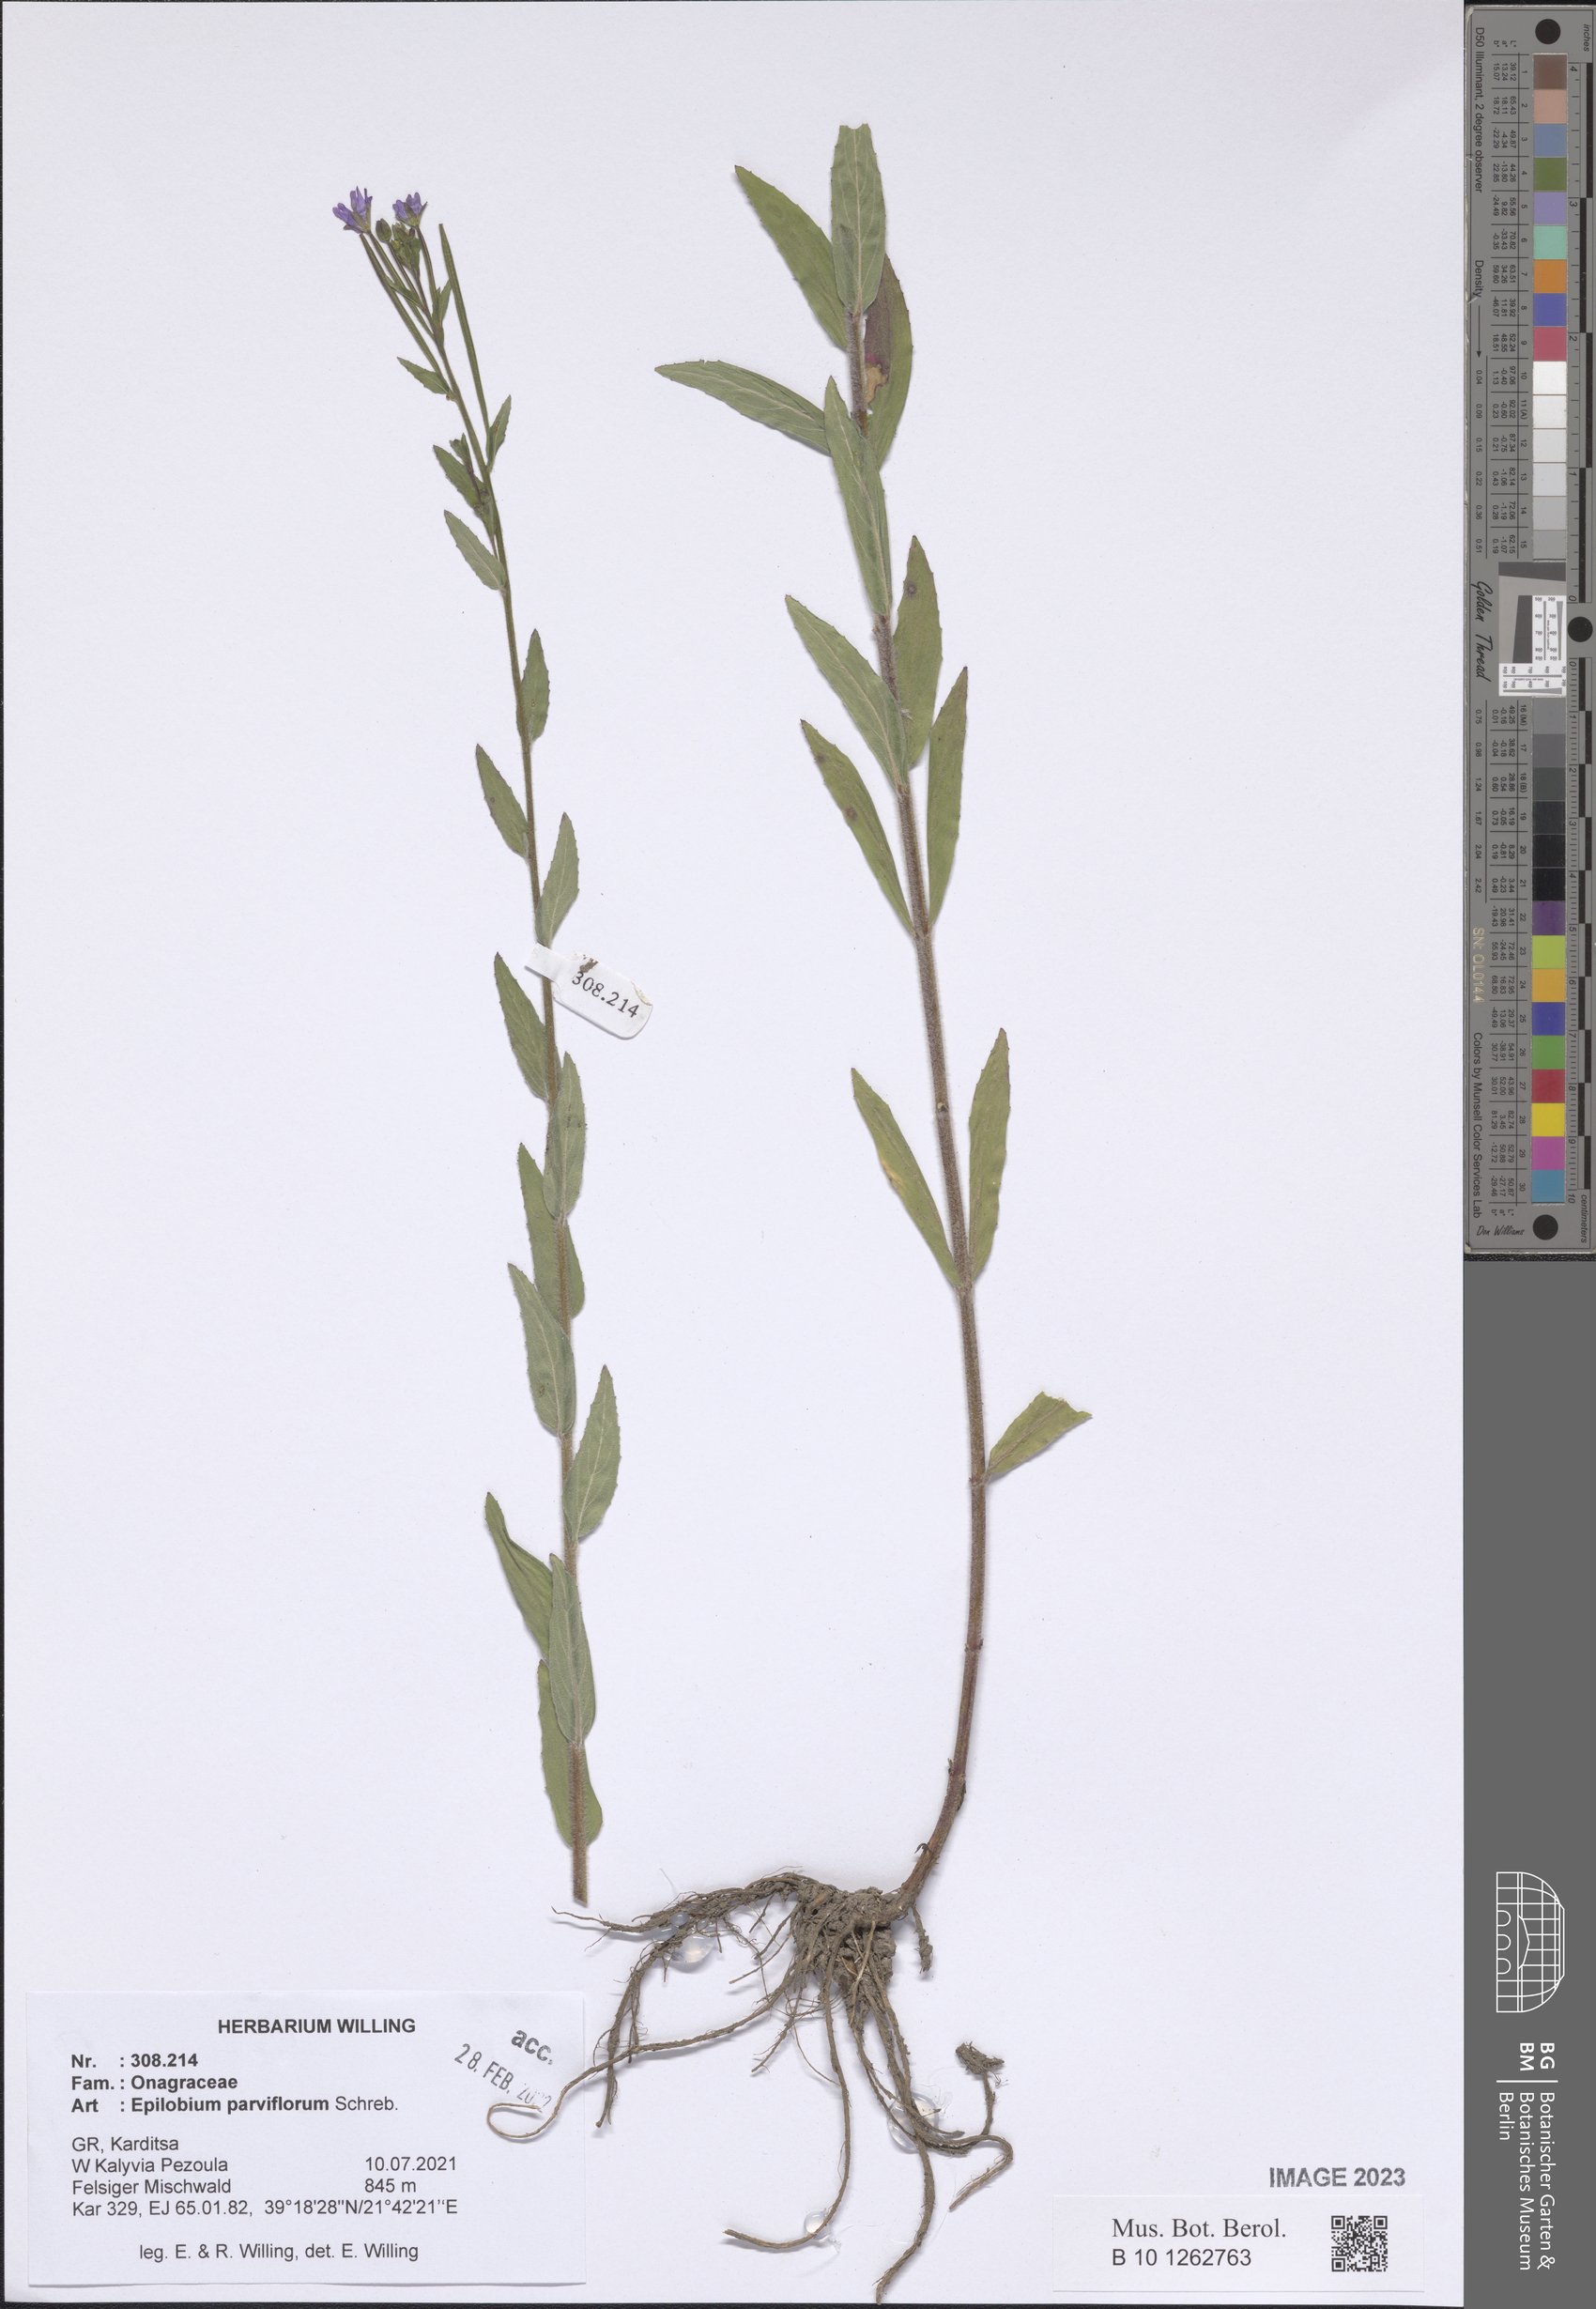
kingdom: Plantae
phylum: Tracheophyta
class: Magnoliopsida
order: Myrtales
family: Onagraceae
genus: Epilobium
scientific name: Epilobium parviflorum
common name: Hoary willowherb
